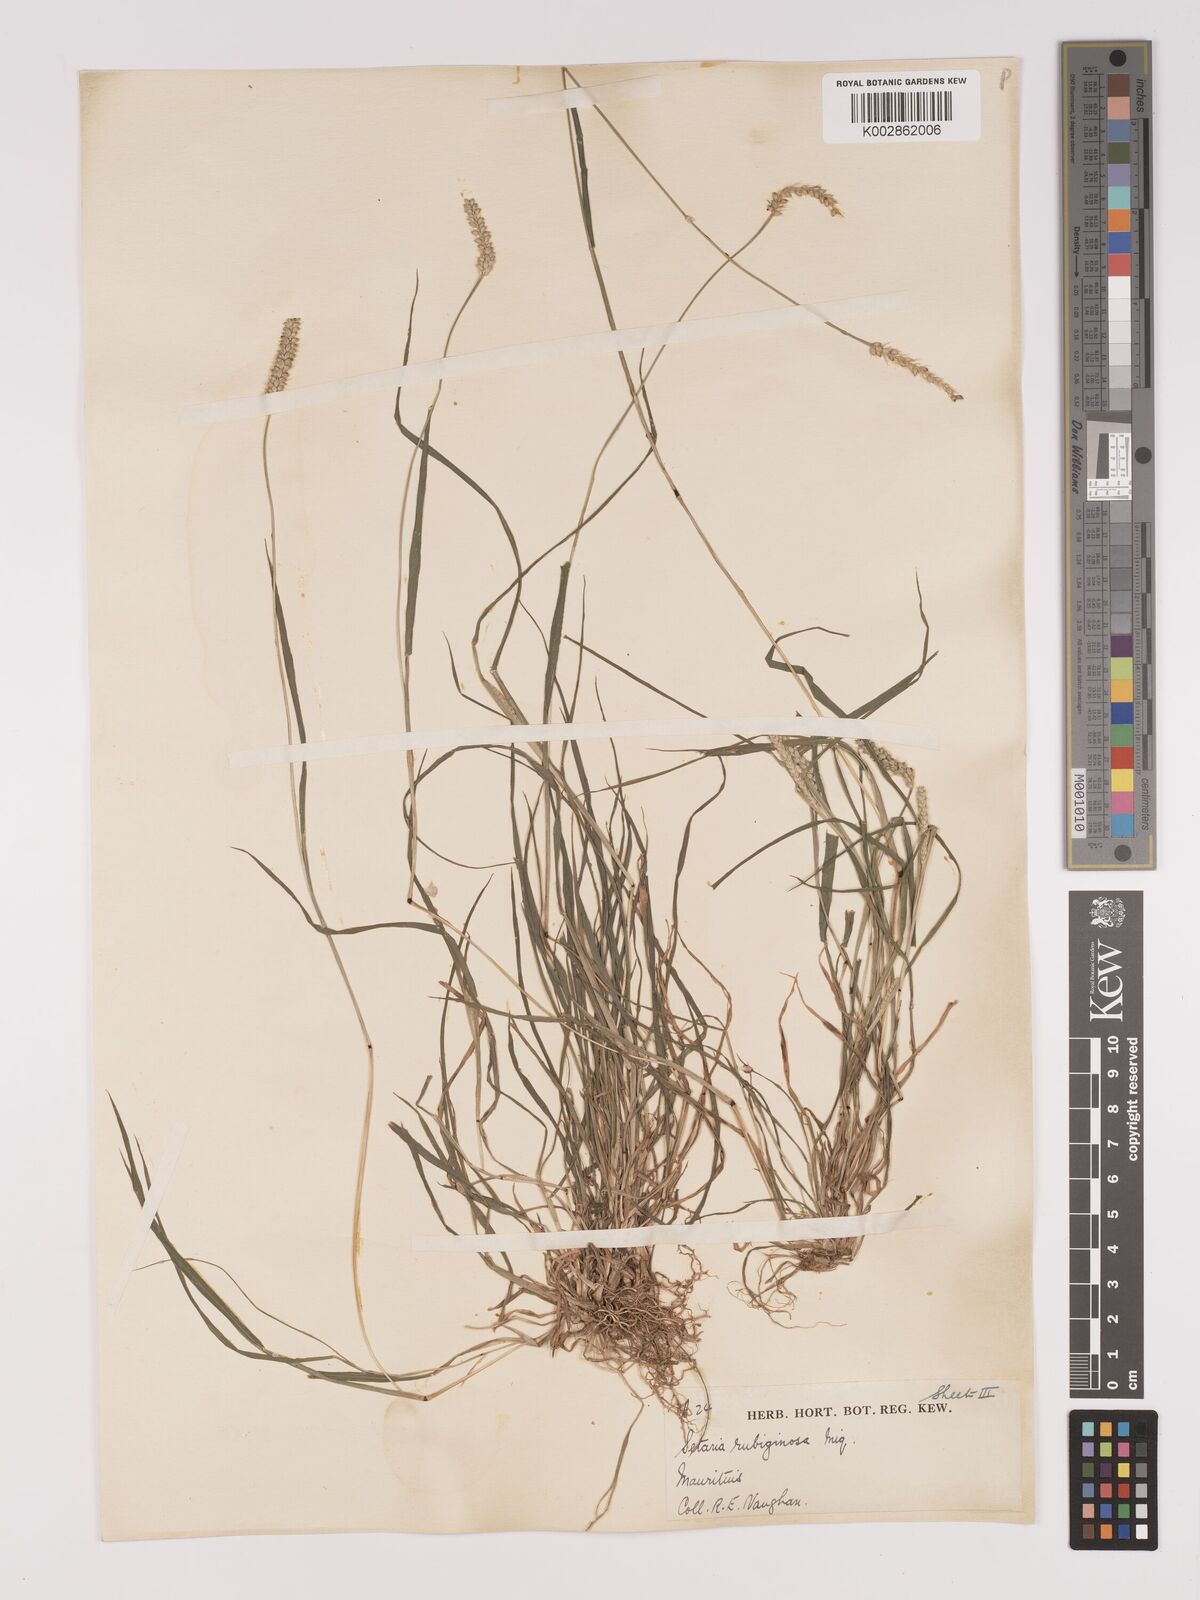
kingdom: Plantae
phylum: Tracheophyta
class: Liliopsida
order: Poales
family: Poaceae
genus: Setaria
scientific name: Setaria pumila
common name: Yellow bristle-grass
